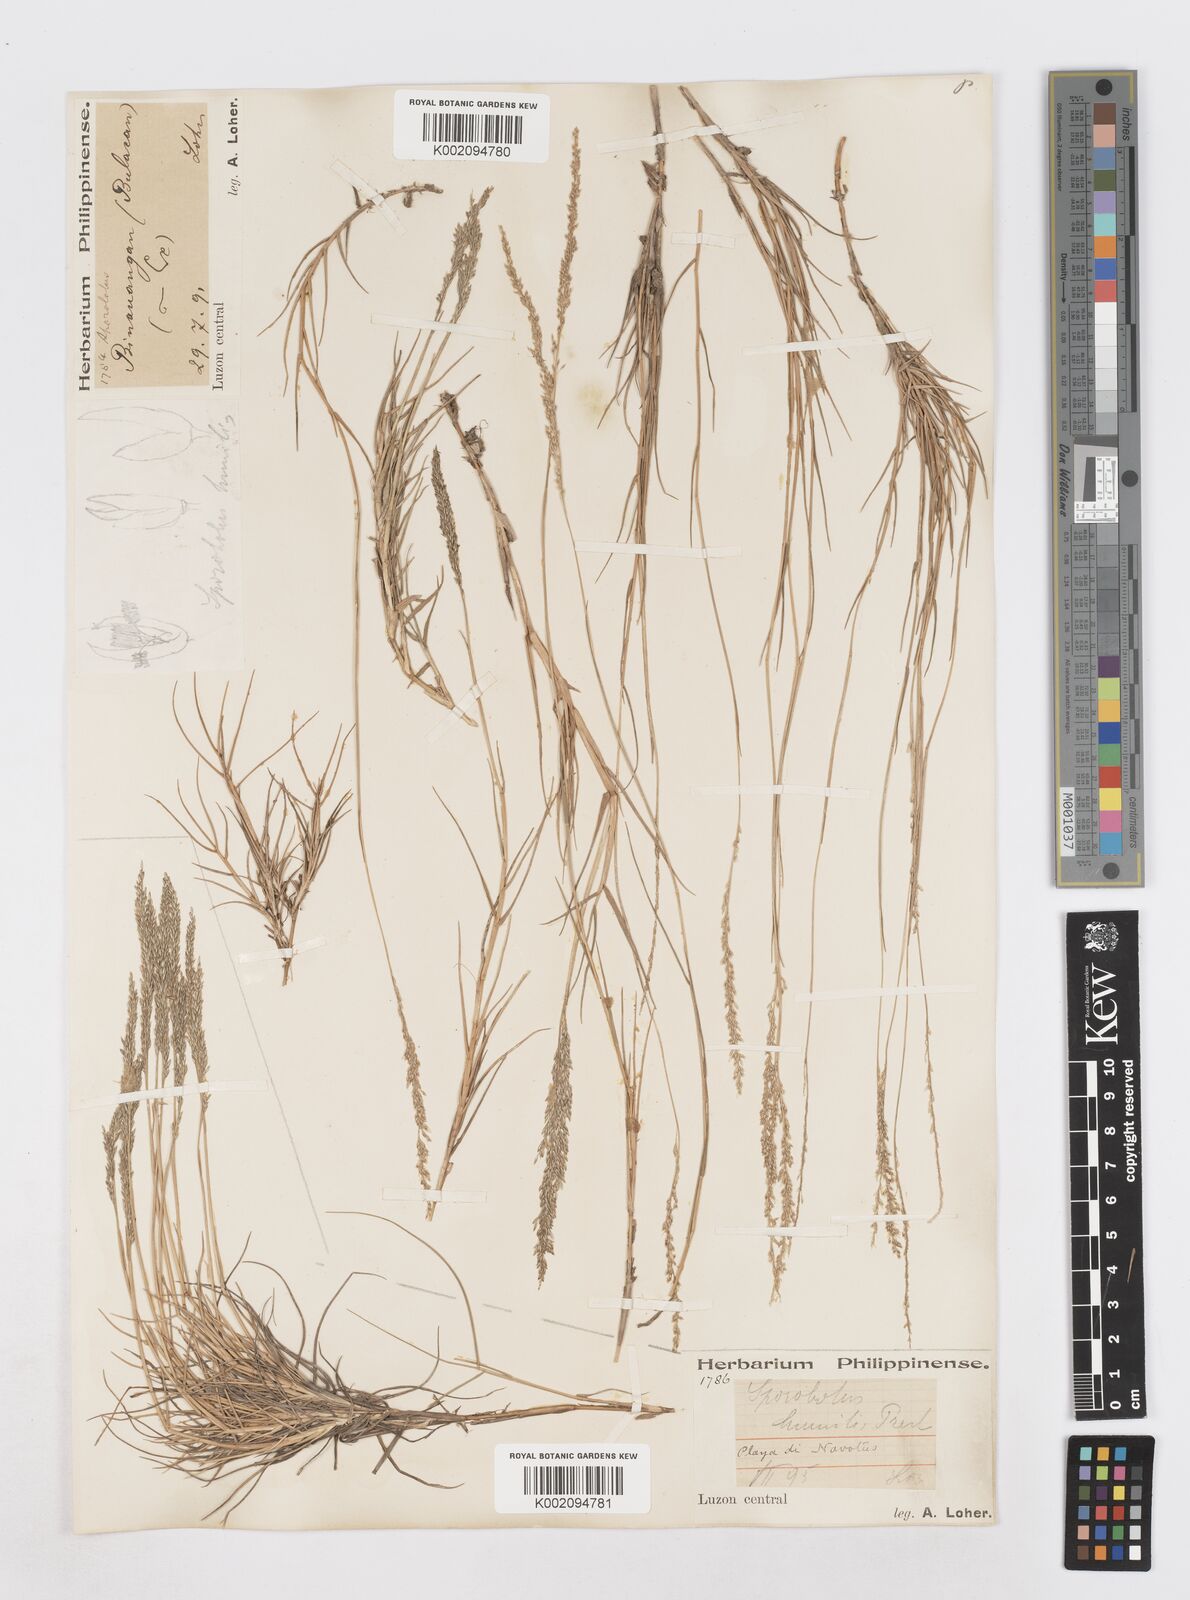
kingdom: Plantae
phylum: Tracheophyta
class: Liliopsida
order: Poales
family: Poaceae
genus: Sporobolus
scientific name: Sporobolus virginicus
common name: Beach dropseed
